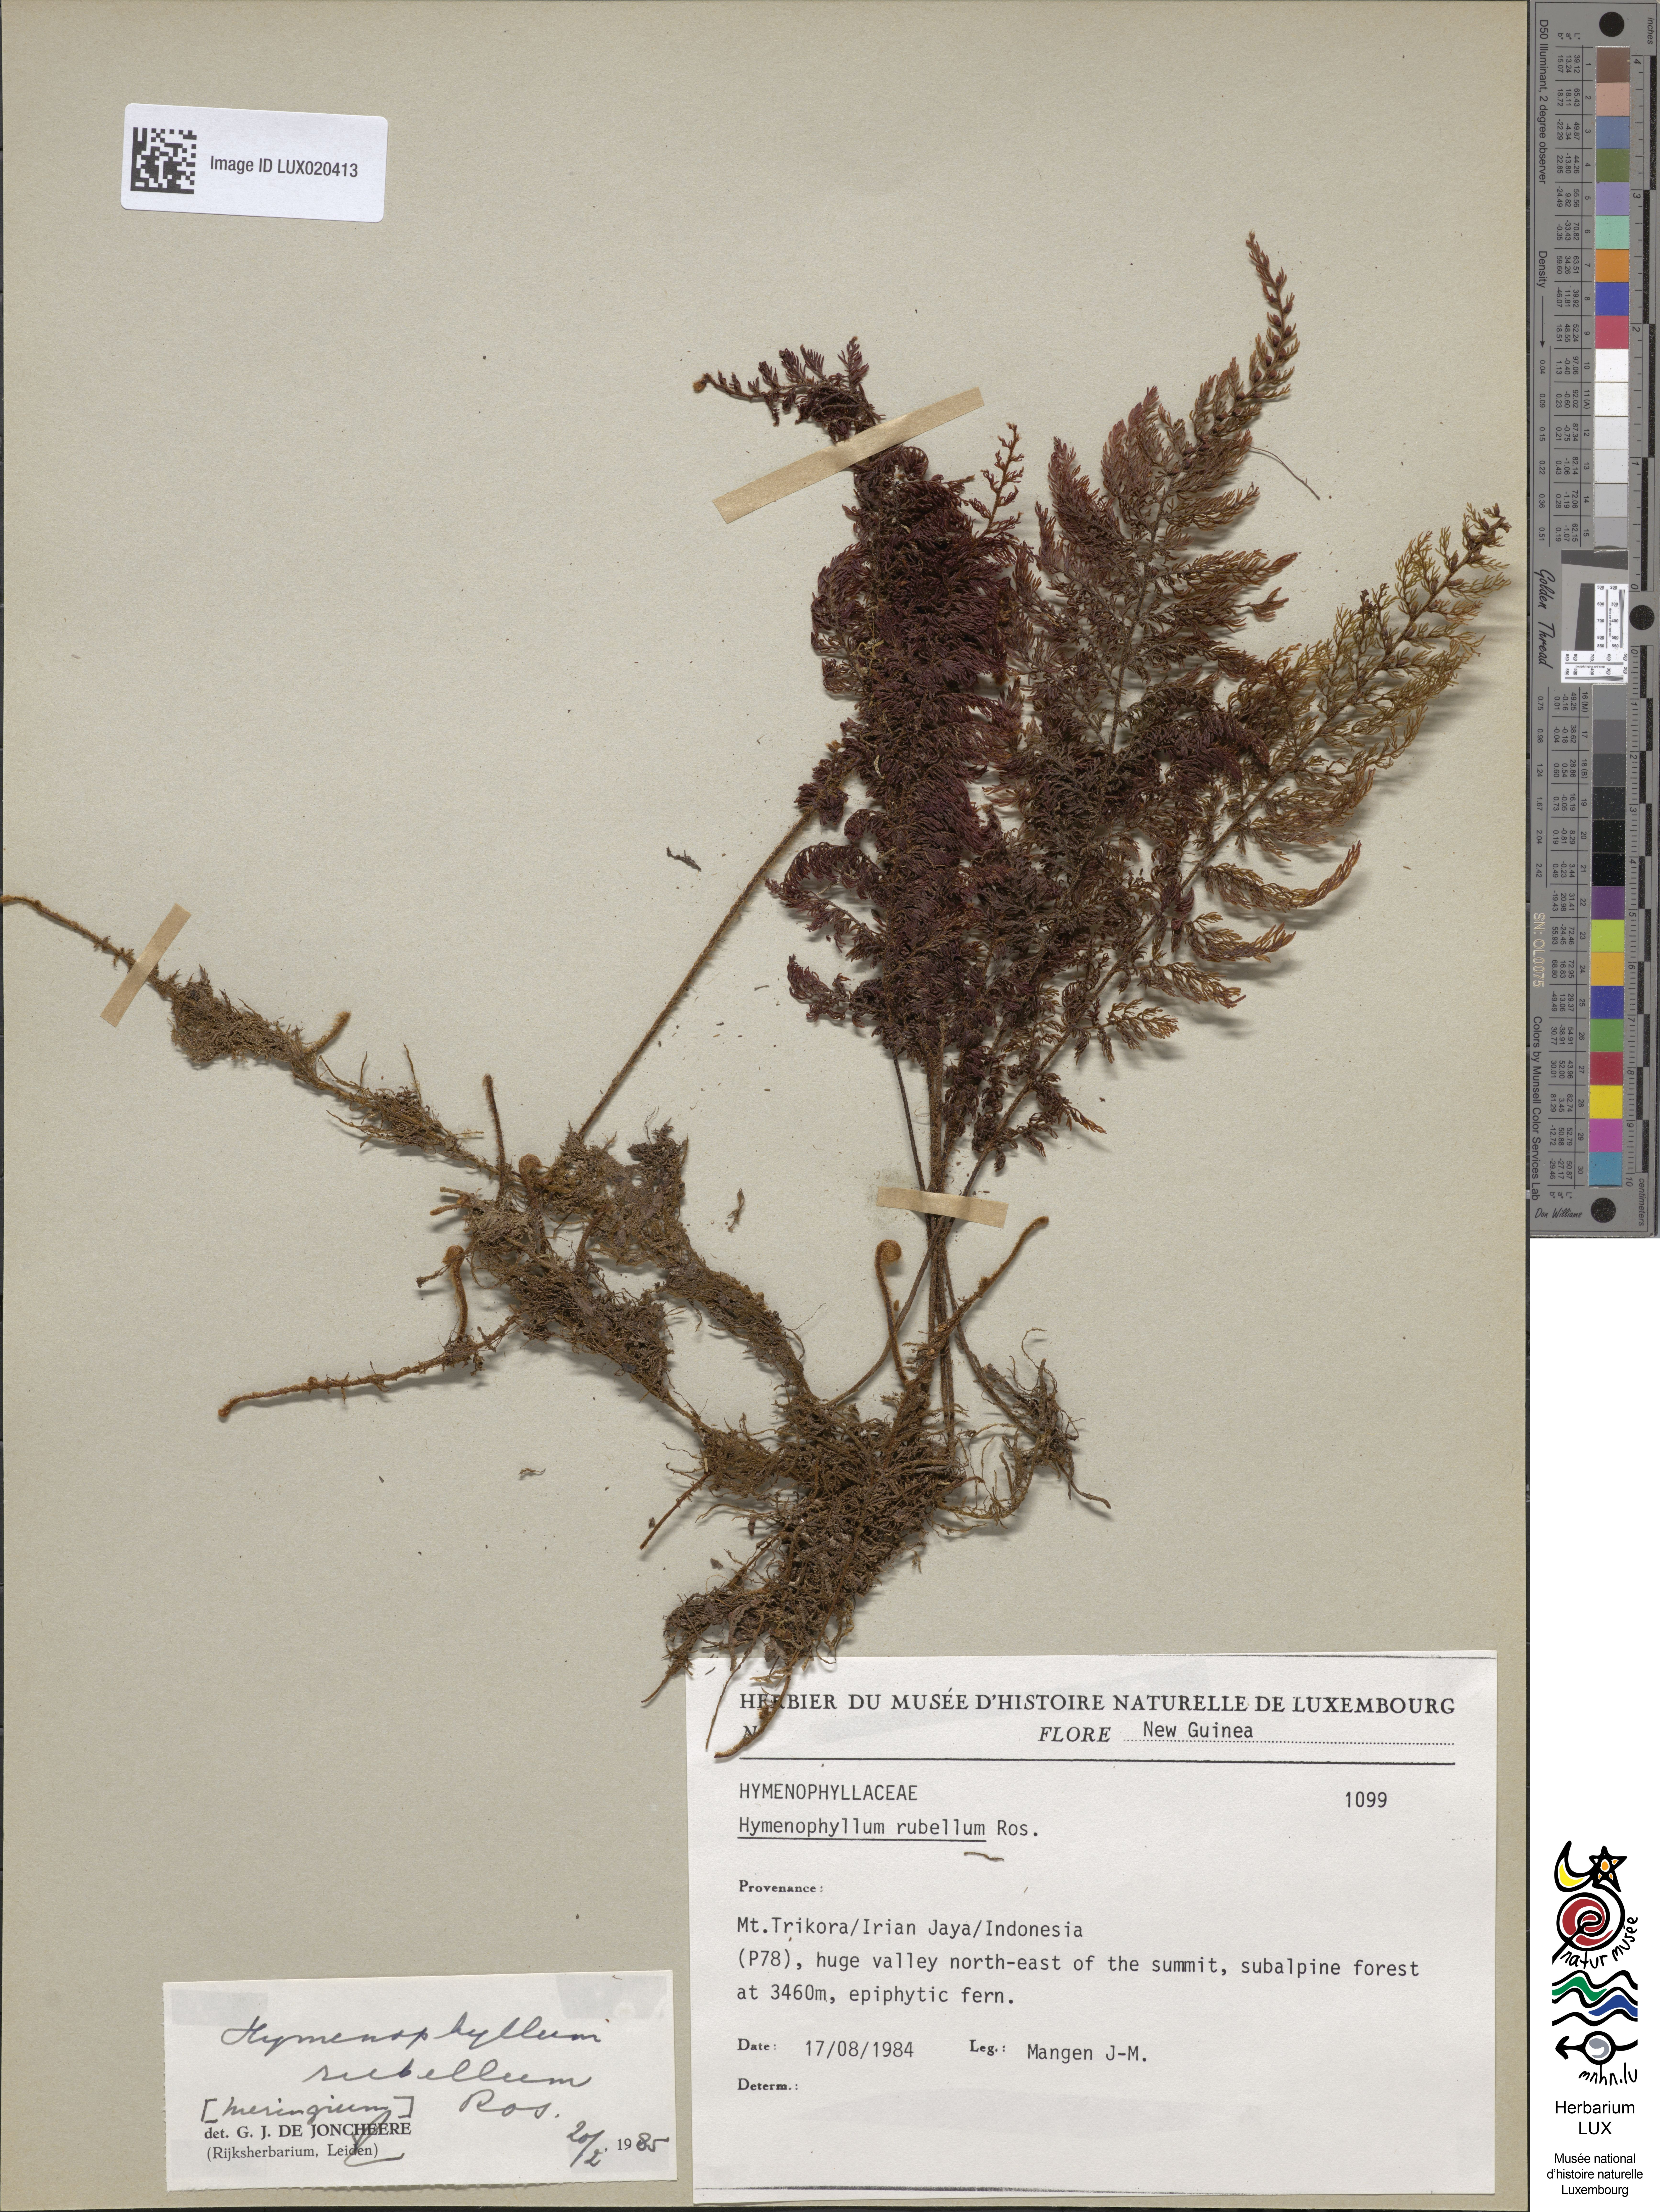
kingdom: Plantae
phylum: Tracheophyta
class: Polypodiopsida
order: Hymenophyllales
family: Hymenophyllaceae
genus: Hymenophyllum
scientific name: Hymenophyllum rubellum
